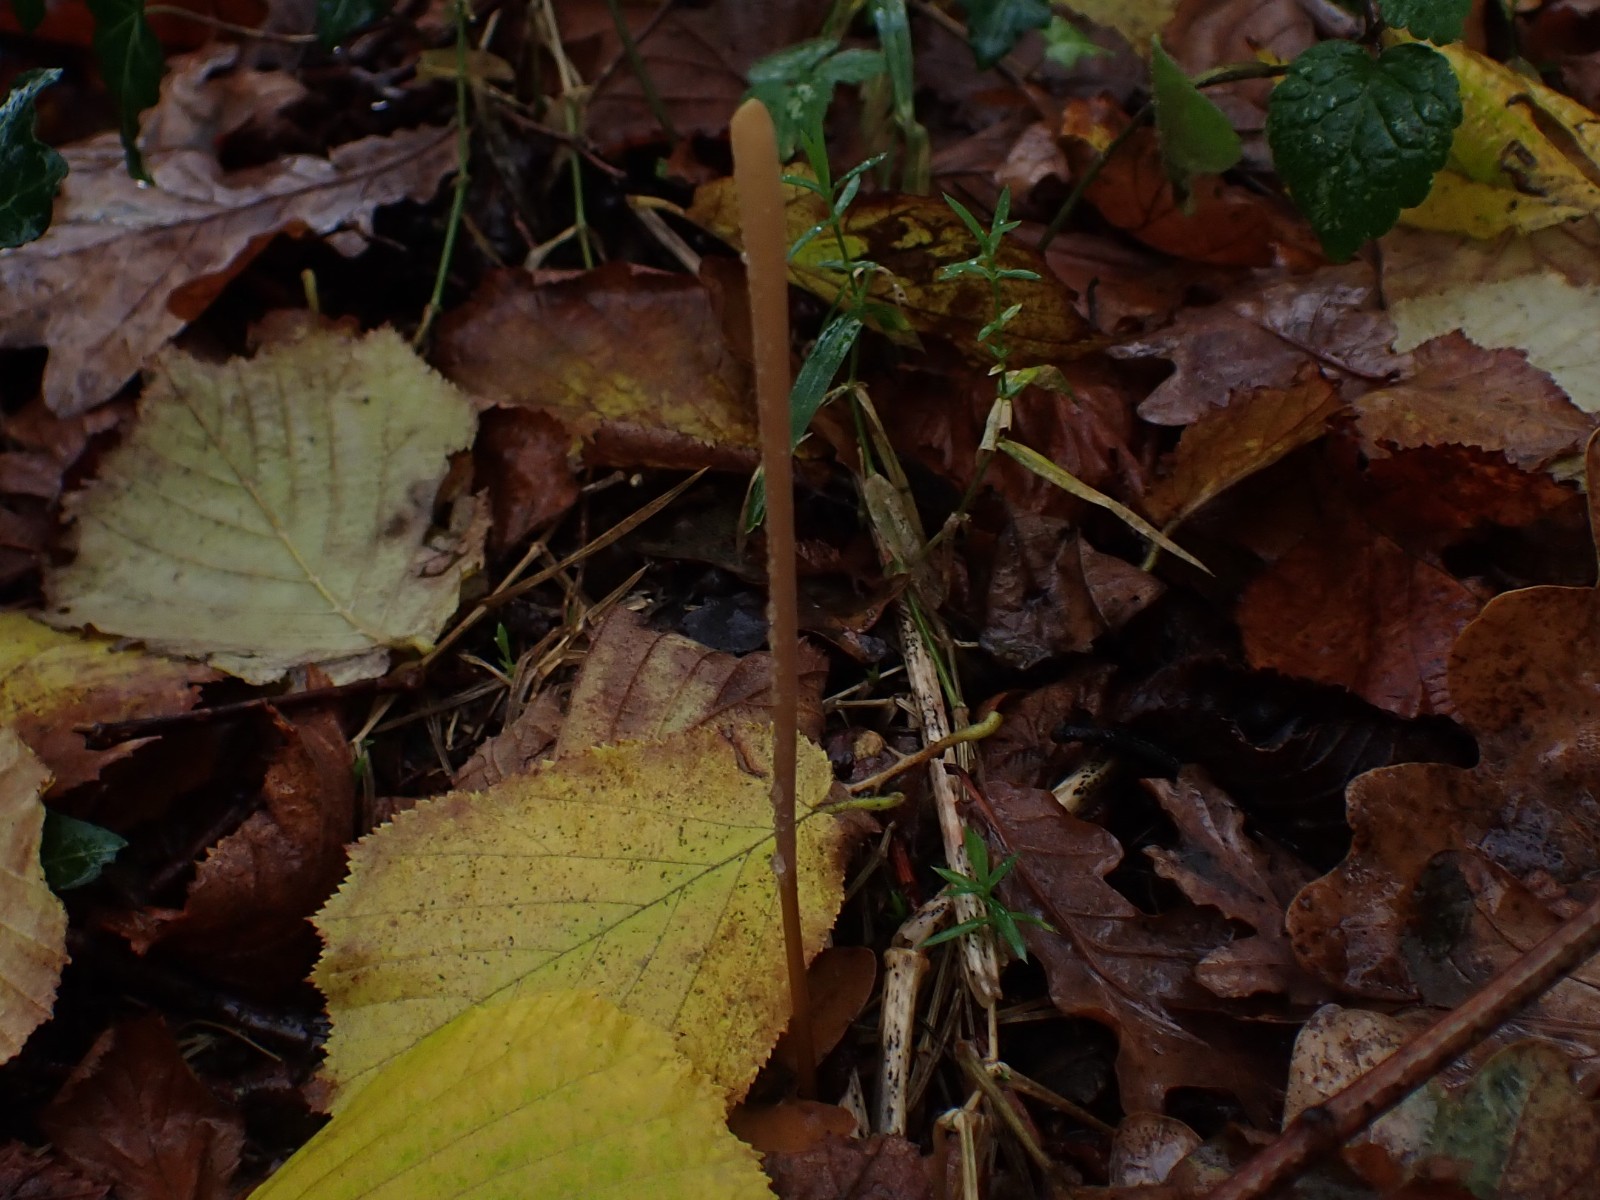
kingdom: Fungi
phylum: Basidiomycota
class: Agaricomycetes
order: Agaricales
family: Typhulaceae
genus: Typhula
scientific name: Typhula fistulosa
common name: pibet rørkølle
